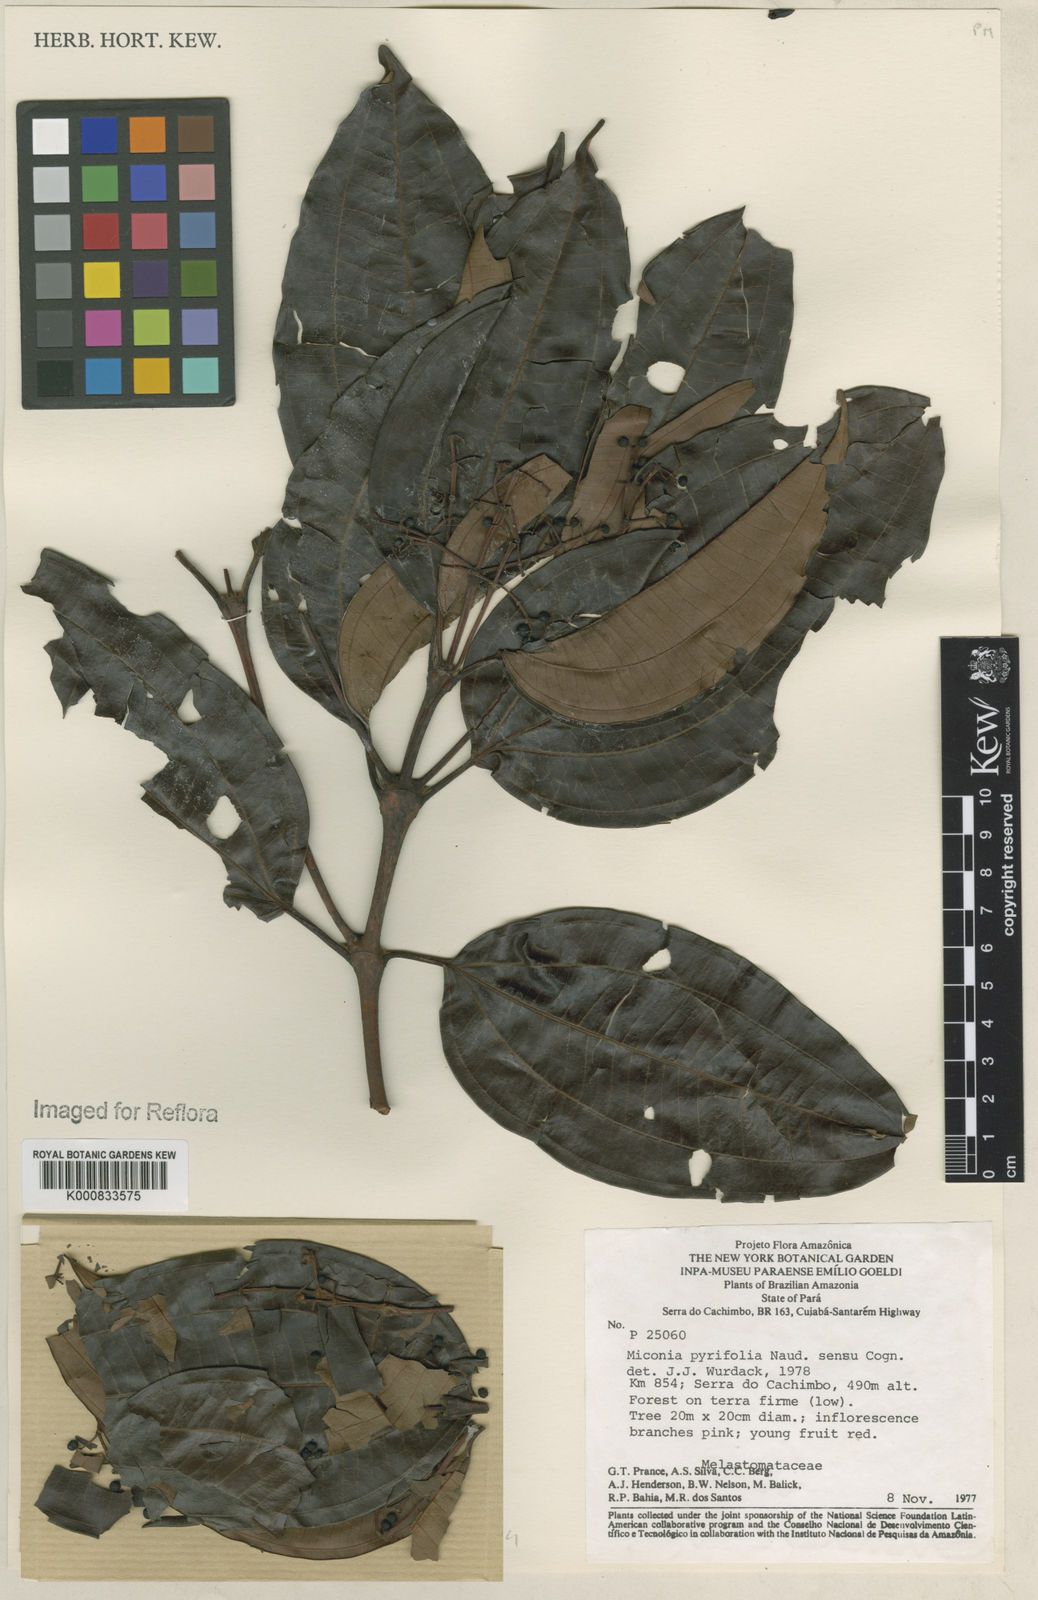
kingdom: Plantae
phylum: Tracheophyta
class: Magnoliopsida
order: Myrtales
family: Melastomataceae
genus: Miconia
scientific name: Miconia pyrifolia
